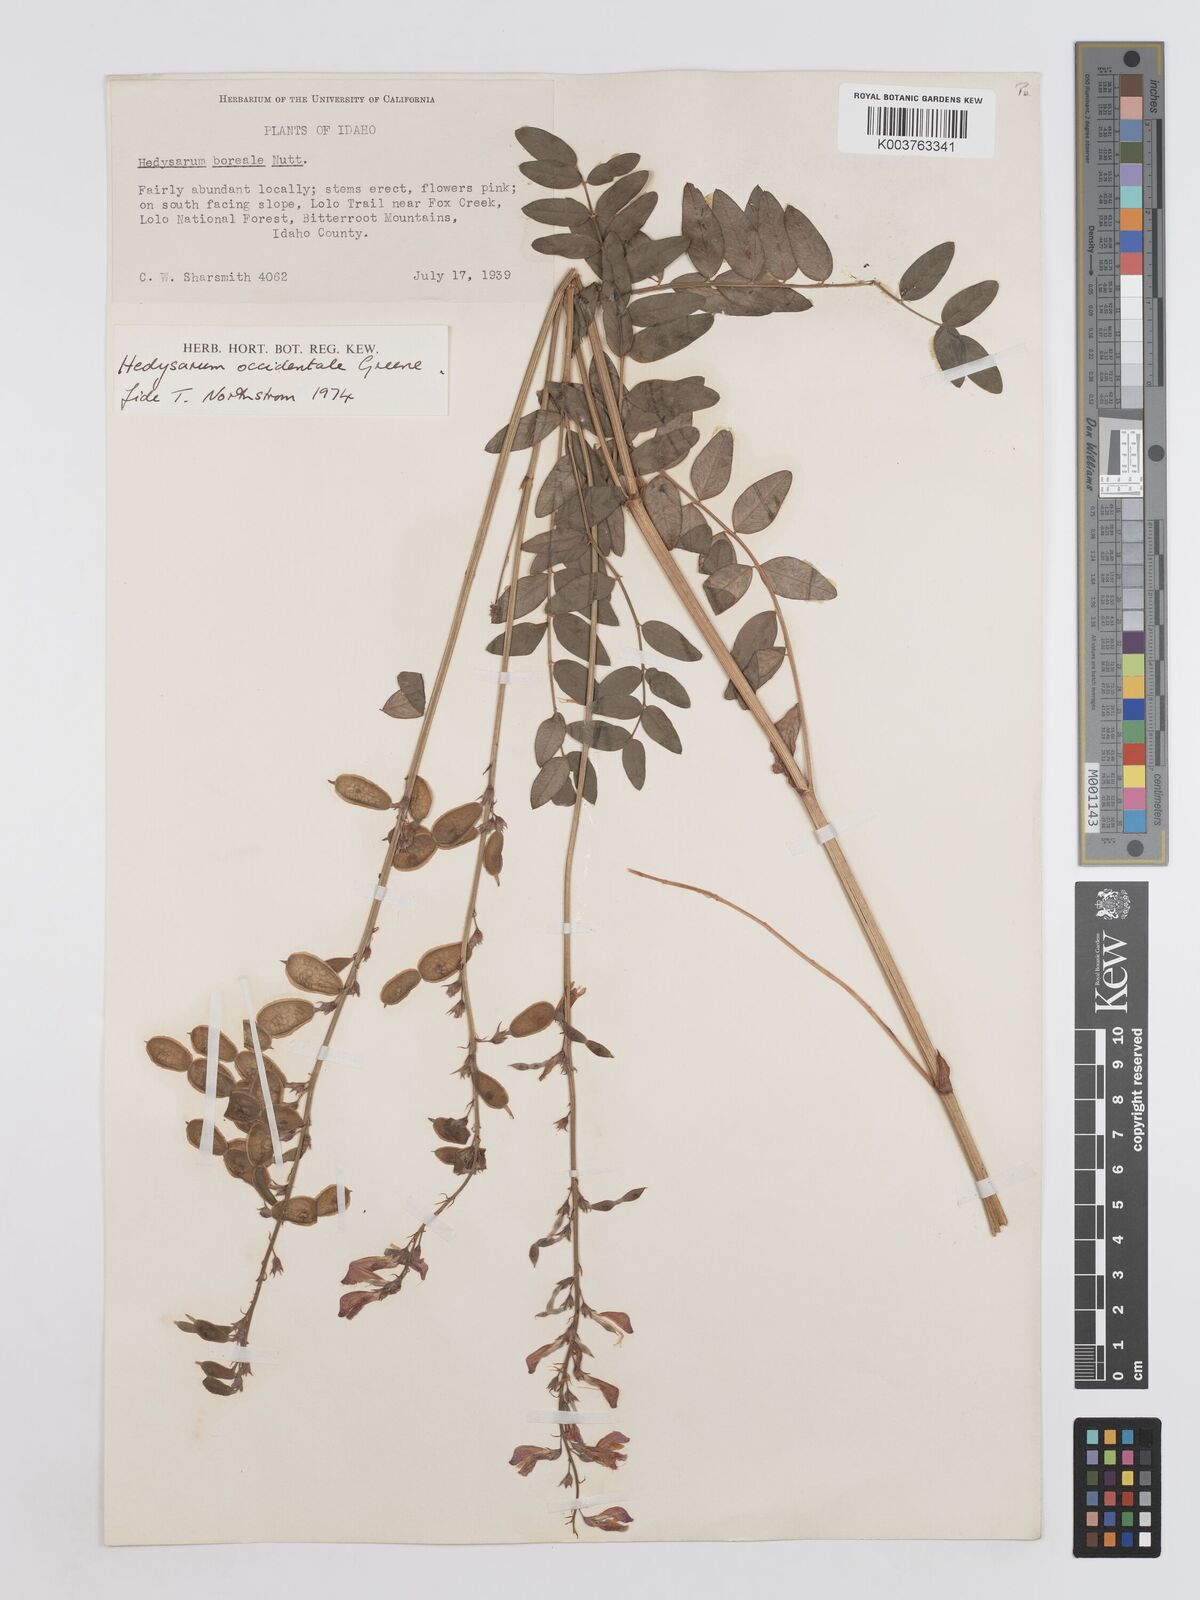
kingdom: Plantae
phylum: Tracheophyta
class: Magnoliopsida
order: Fabales
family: Fabaceae
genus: Hedysarum
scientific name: Hedysarum occidentale
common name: Western hedysarum
